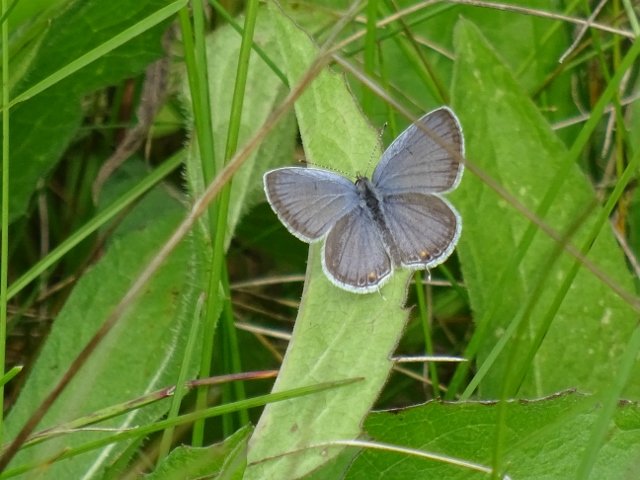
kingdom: Animalia
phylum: Arthropoda
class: Insecta
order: Lepidoptera
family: Lycaenidae
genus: Elkalyce
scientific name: Elkalyce comyntas
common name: Eastern Tailed-Blue
